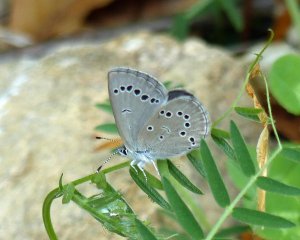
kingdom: Animalia
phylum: Arthropoda
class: Insecta
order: Lepidoptera
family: Lycaenidae
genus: Glaucopsyche
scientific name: Glaucopsyche lygdamus
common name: Silvery Blue
